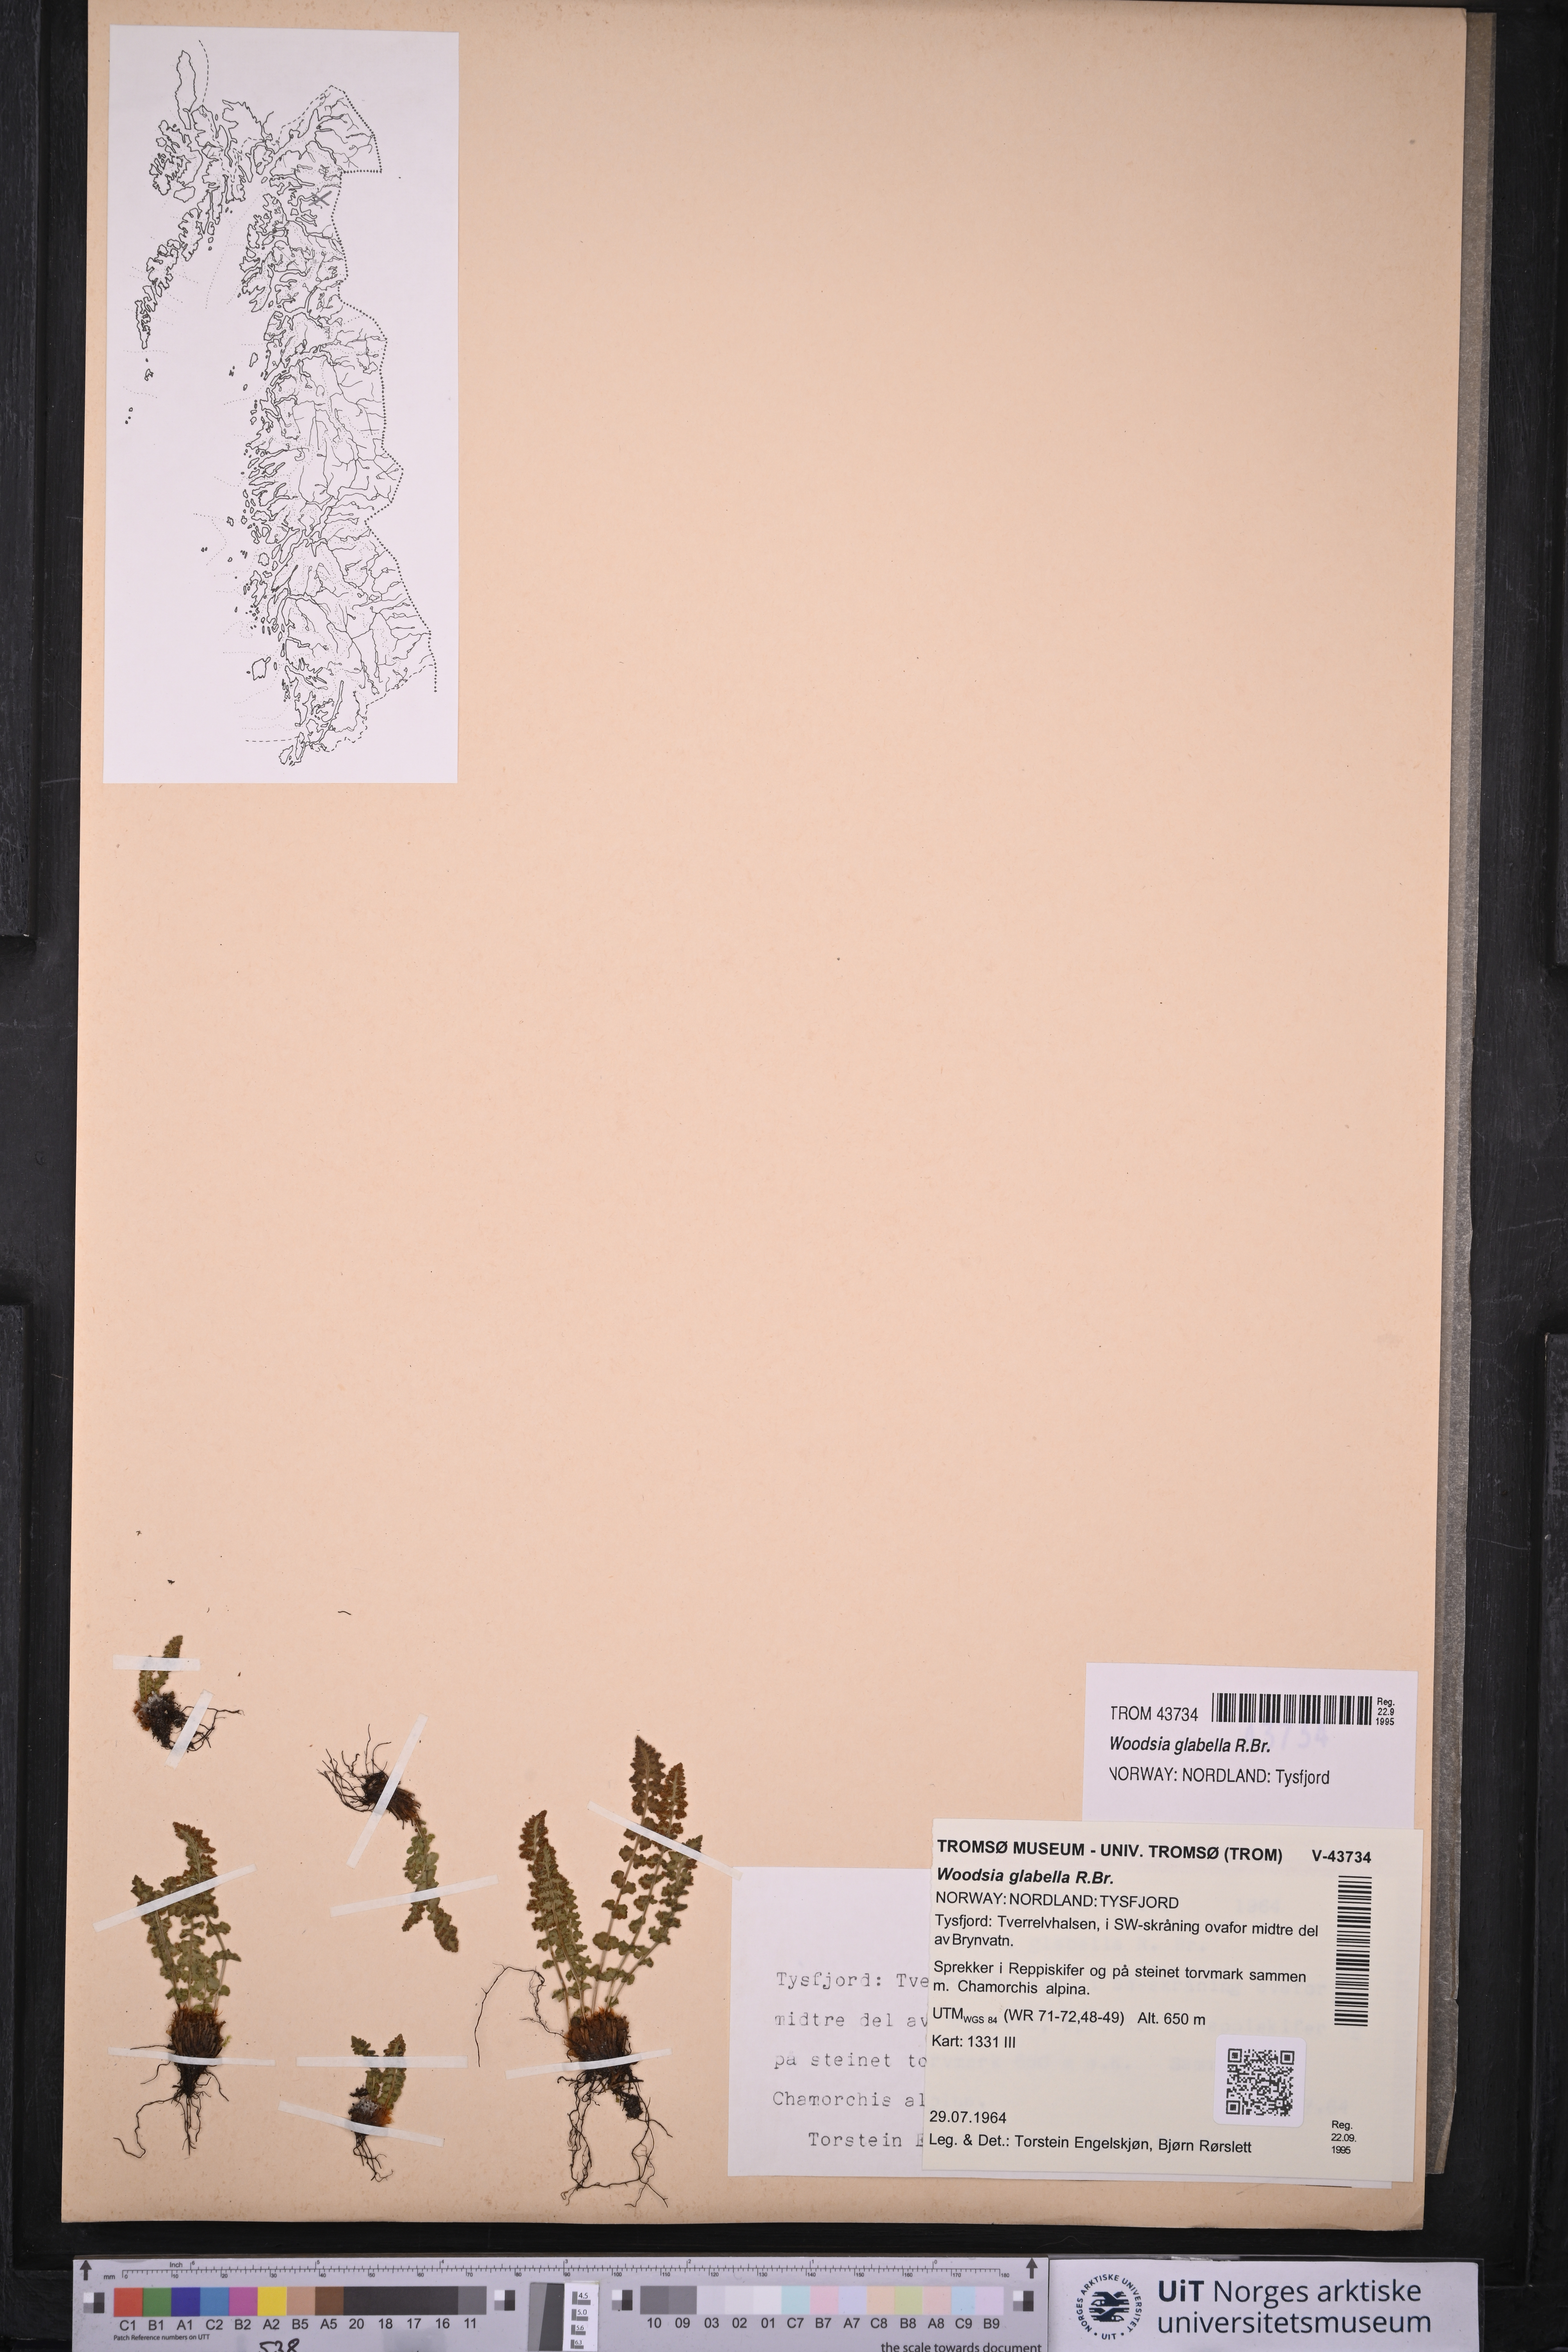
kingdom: Plantae
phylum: Tracheophyta
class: Polypodiopsida
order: Polypodiales
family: Woodsiaceae
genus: Woodsia
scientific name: Woodsia glabella
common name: Smooth woodsia
